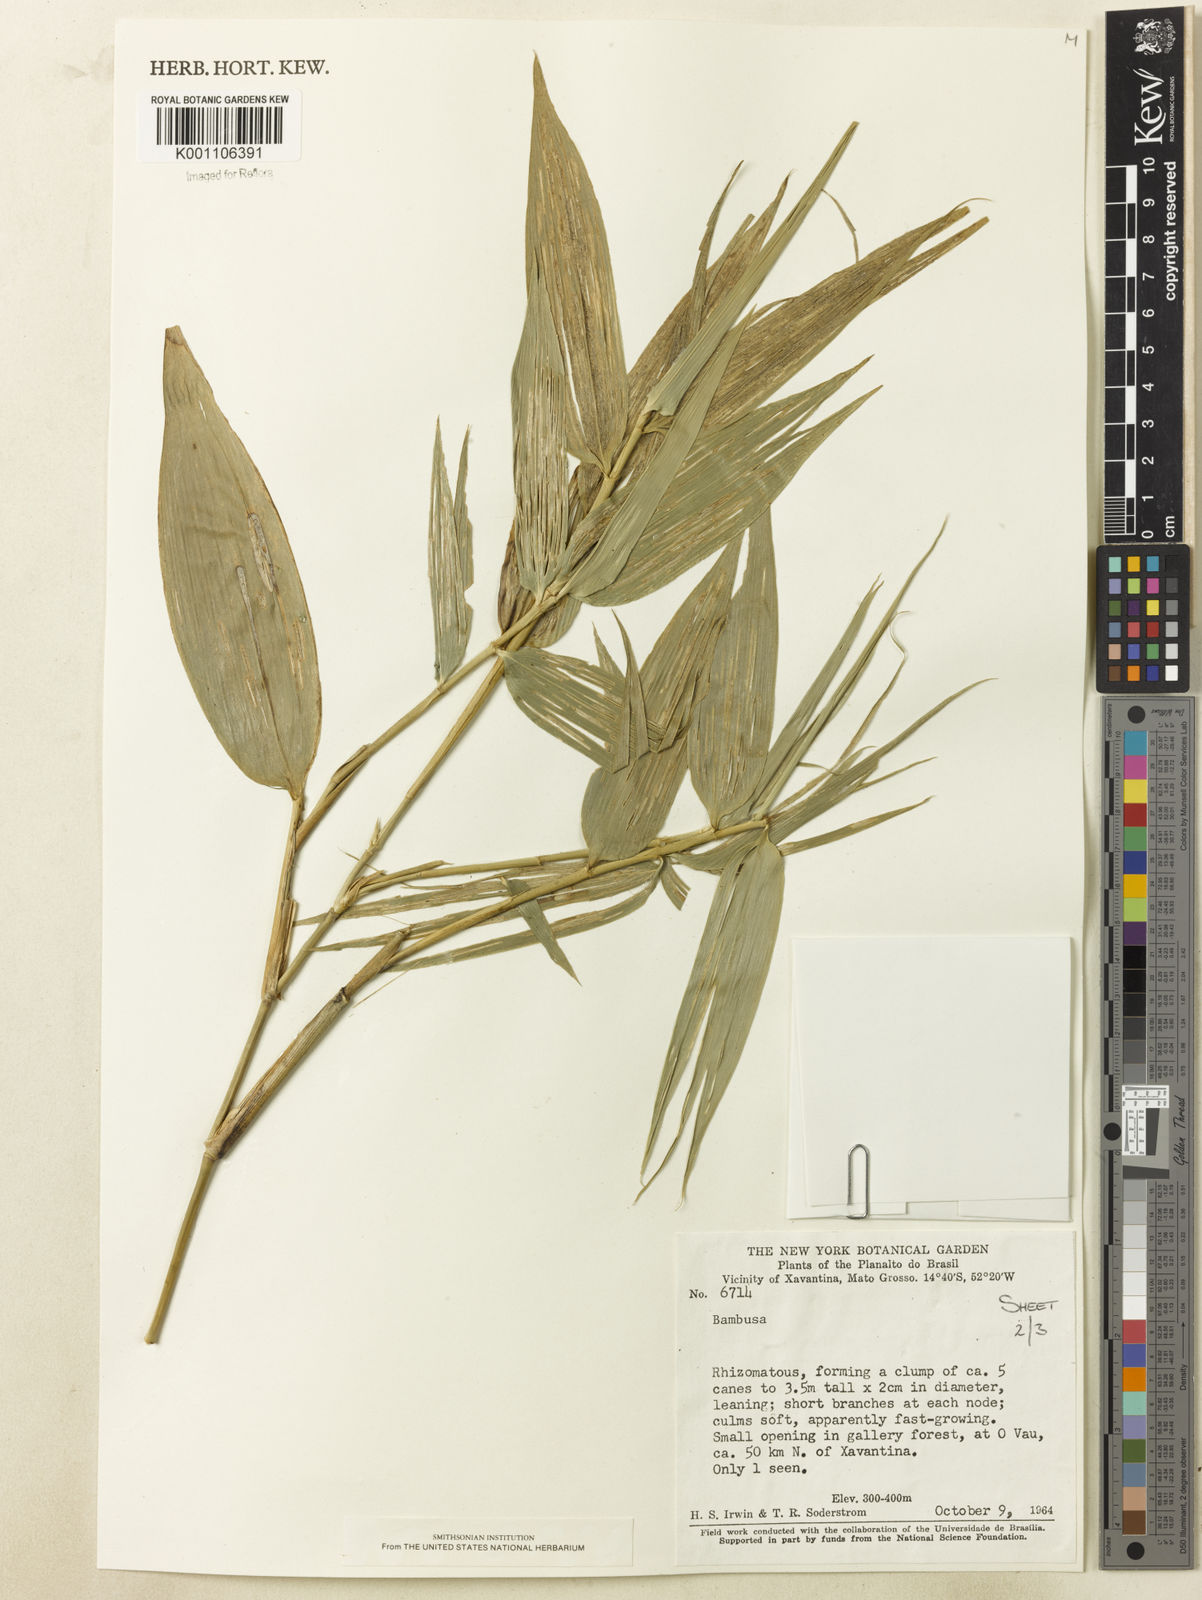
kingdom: Plantae
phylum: Tracheophyta
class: Liliopsida
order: Poales
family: Poaceae
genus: Guadua
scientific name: Guadua
